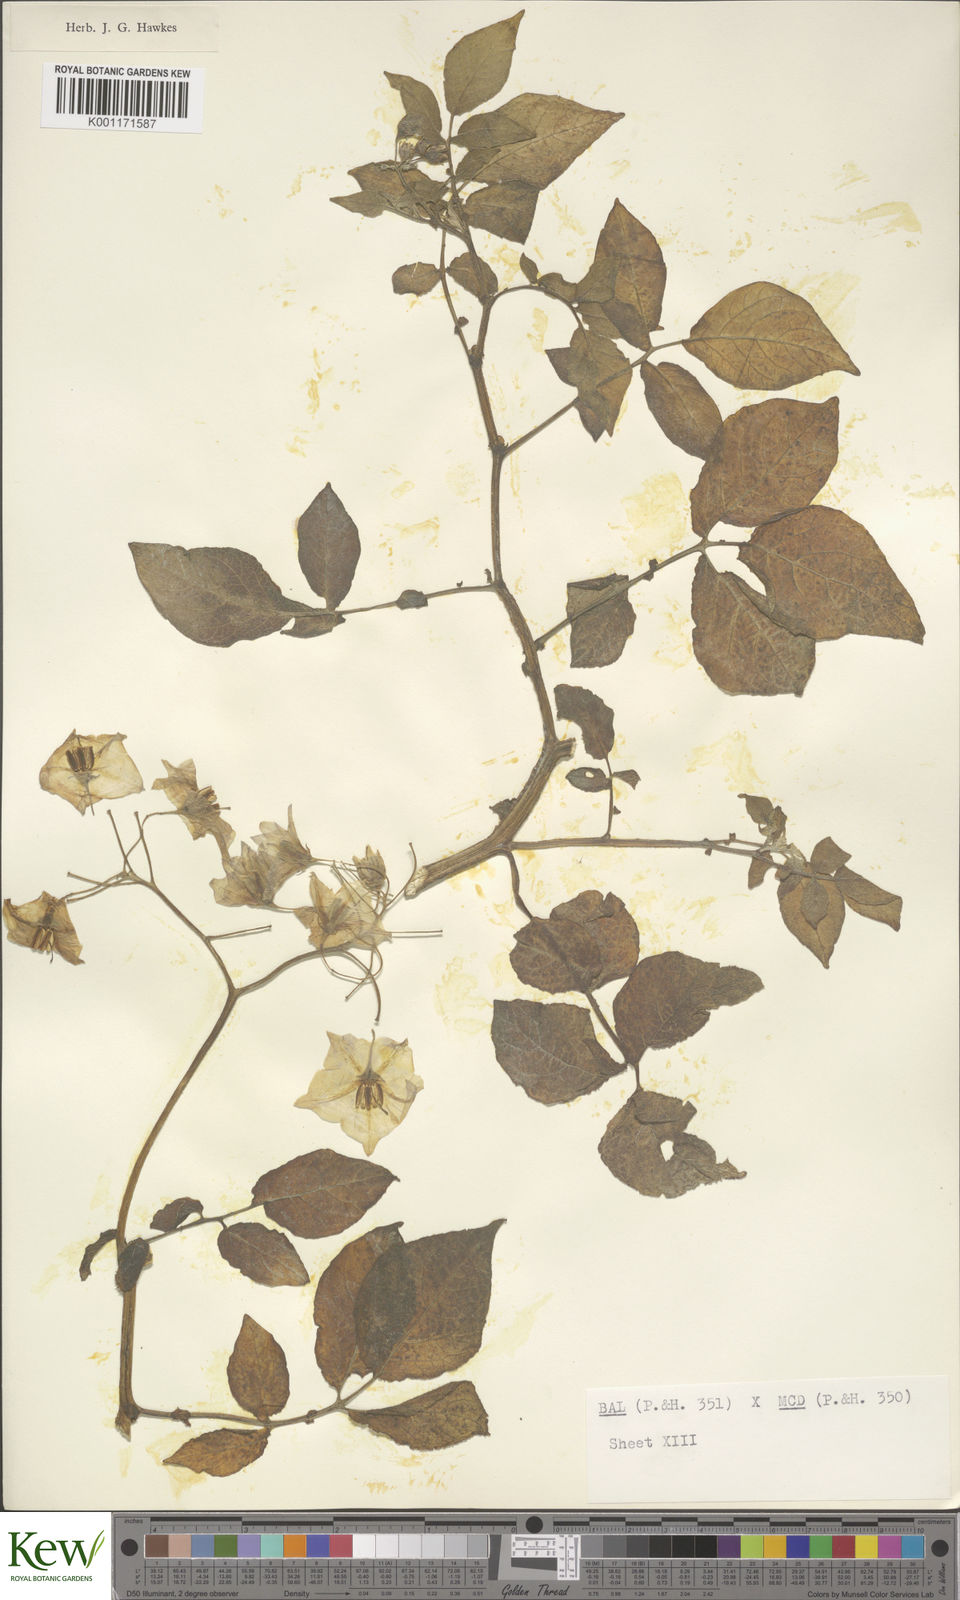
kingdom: Plantae
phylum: Tracheophyta
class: Magnoliopsida
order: Solanales
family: Solanaceae
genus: Solanum
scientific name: Solanum vernei
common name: Purple potato
